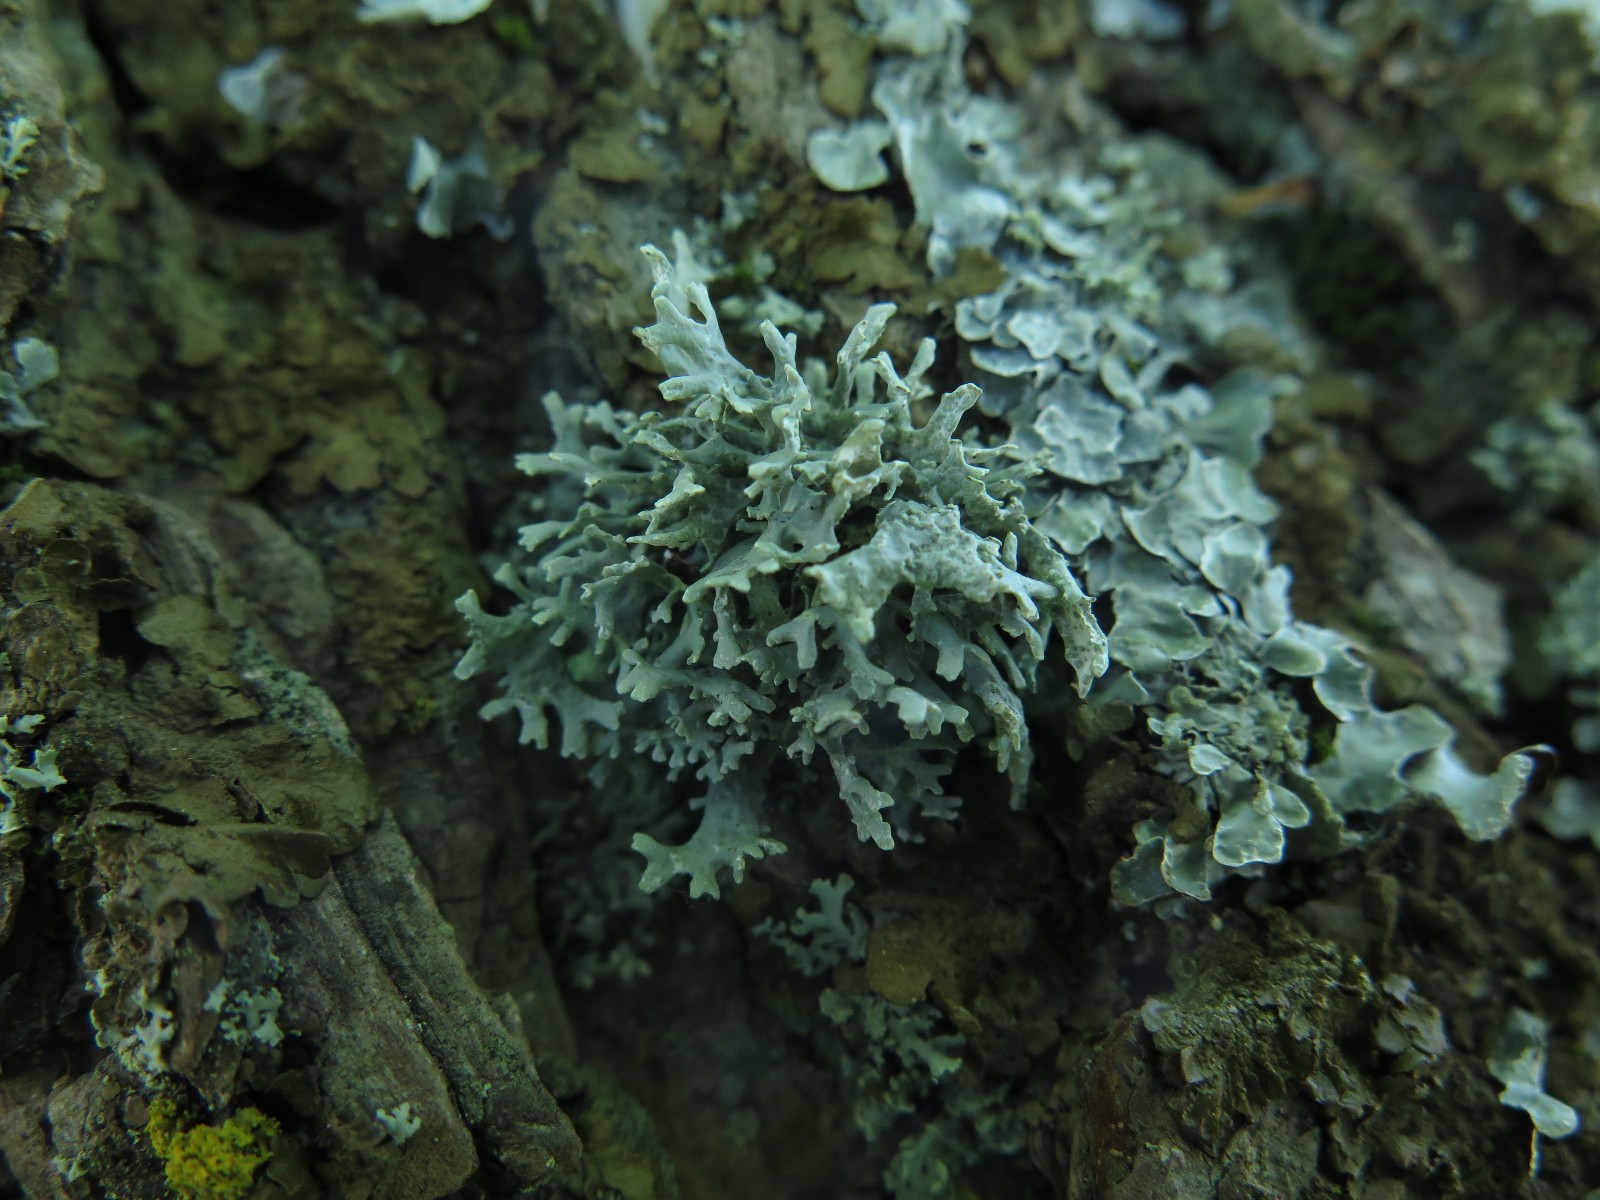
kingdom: Fungi
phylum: Ascomycota
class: Lecanoromycetes
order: Lecanorales
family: Parmeliaceae
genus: Evernia
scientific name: Evernia prunastri
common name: almindelig slåenlav
